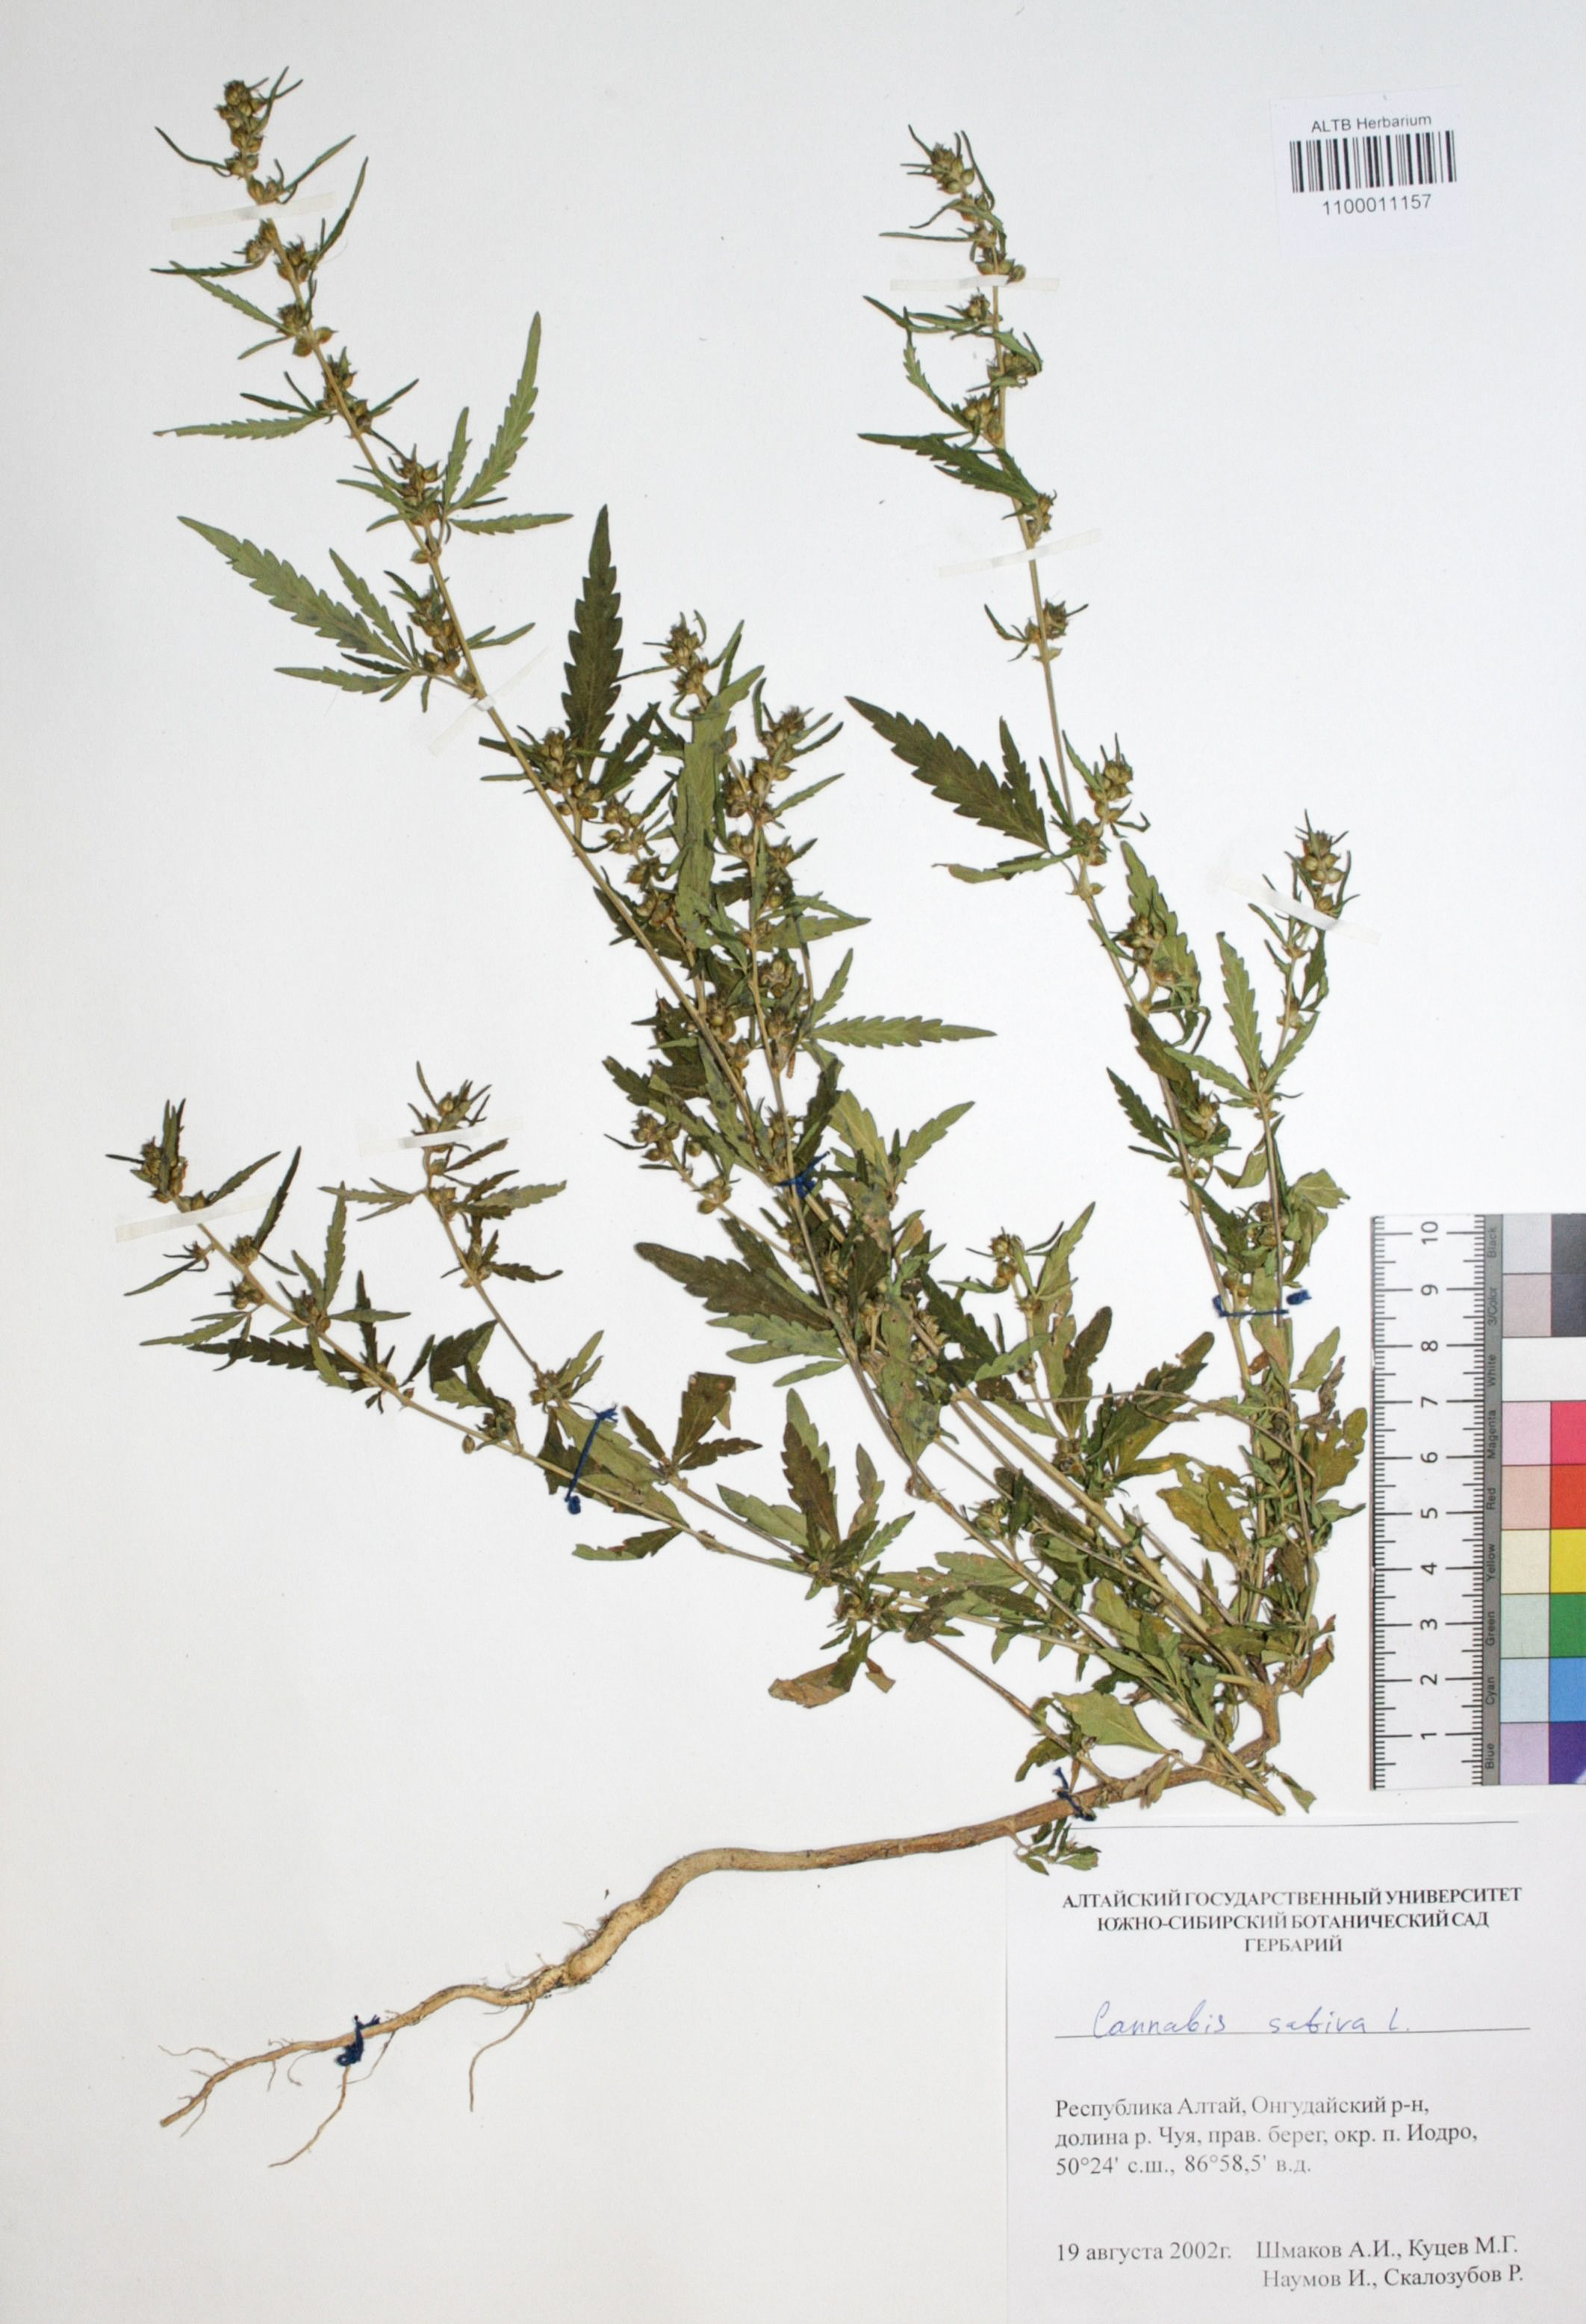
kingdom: Plantae
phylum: Tracheophyta
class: Magnoliopsida
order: Rosales
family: Cannabaceae
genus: Cannabis
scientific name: Cannabis sativa
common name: Hemp
